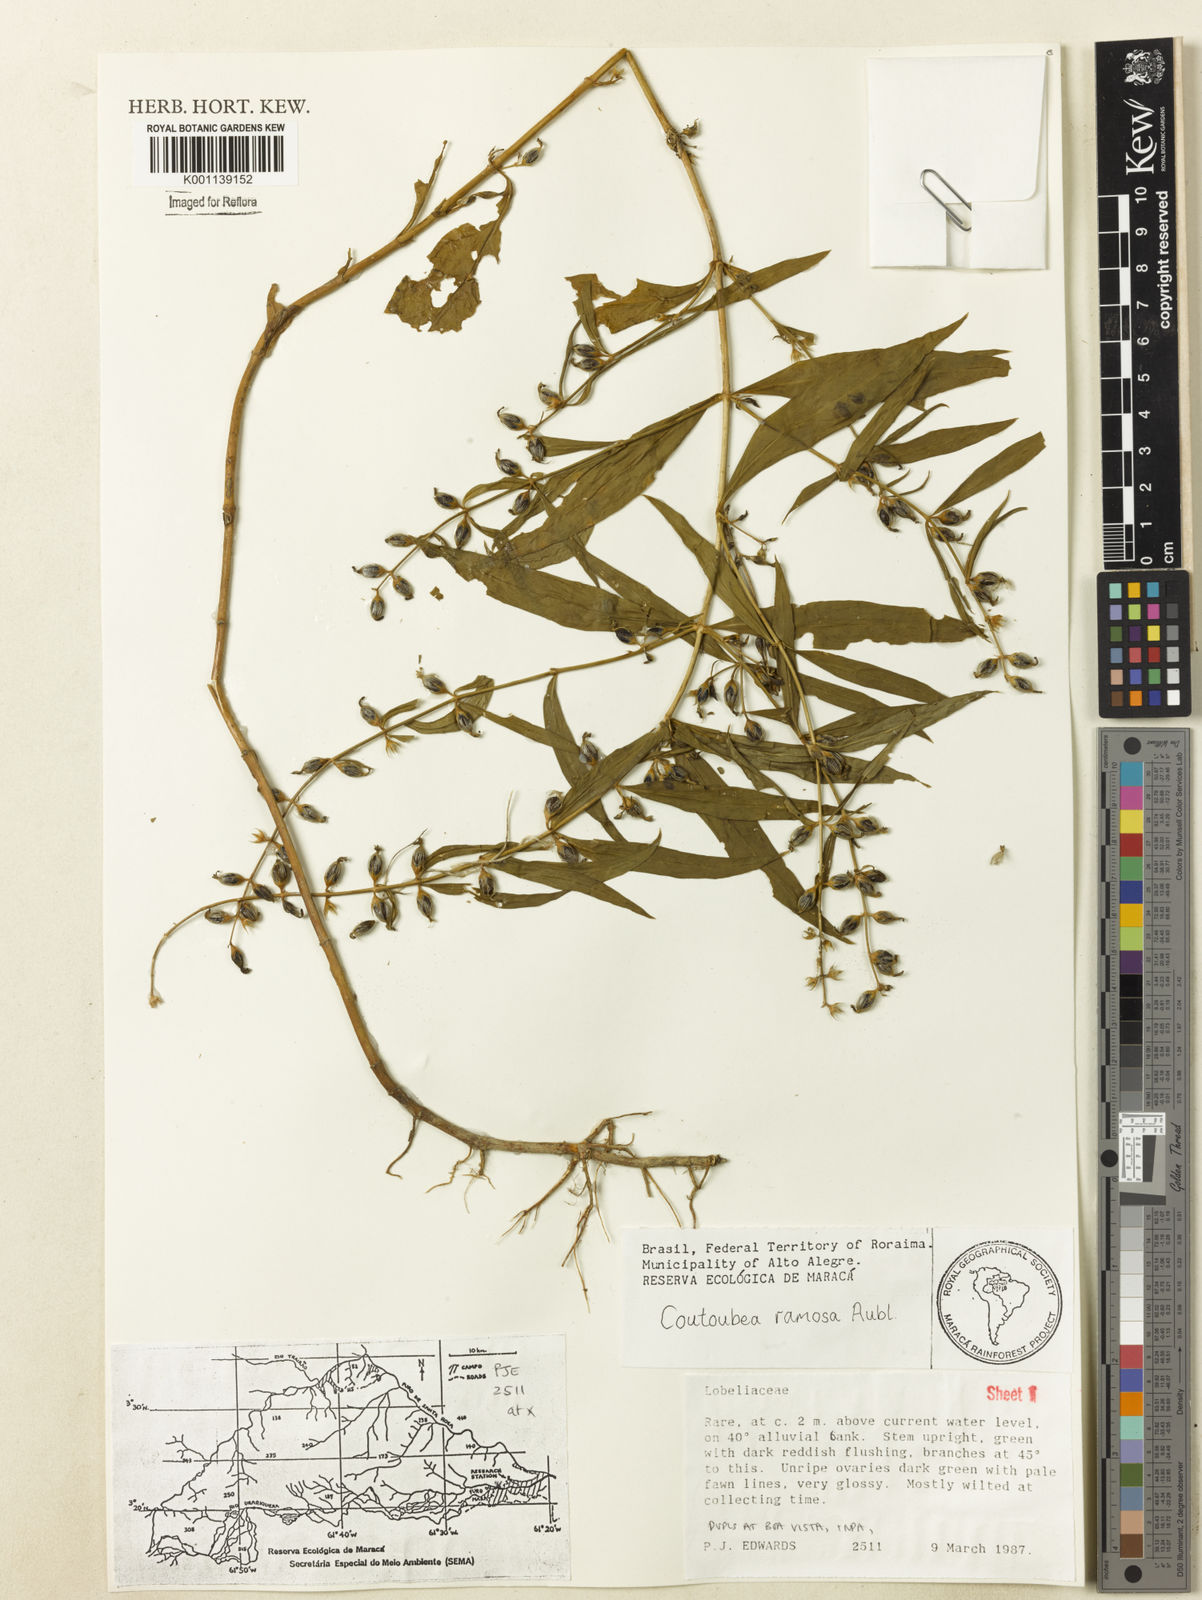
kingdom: Plantae
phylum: Tracheophyta
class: Magnoliopsida
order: Gentianales
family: Gentianaceae
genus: Coutoubea
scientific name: Coutoubea ramosa
